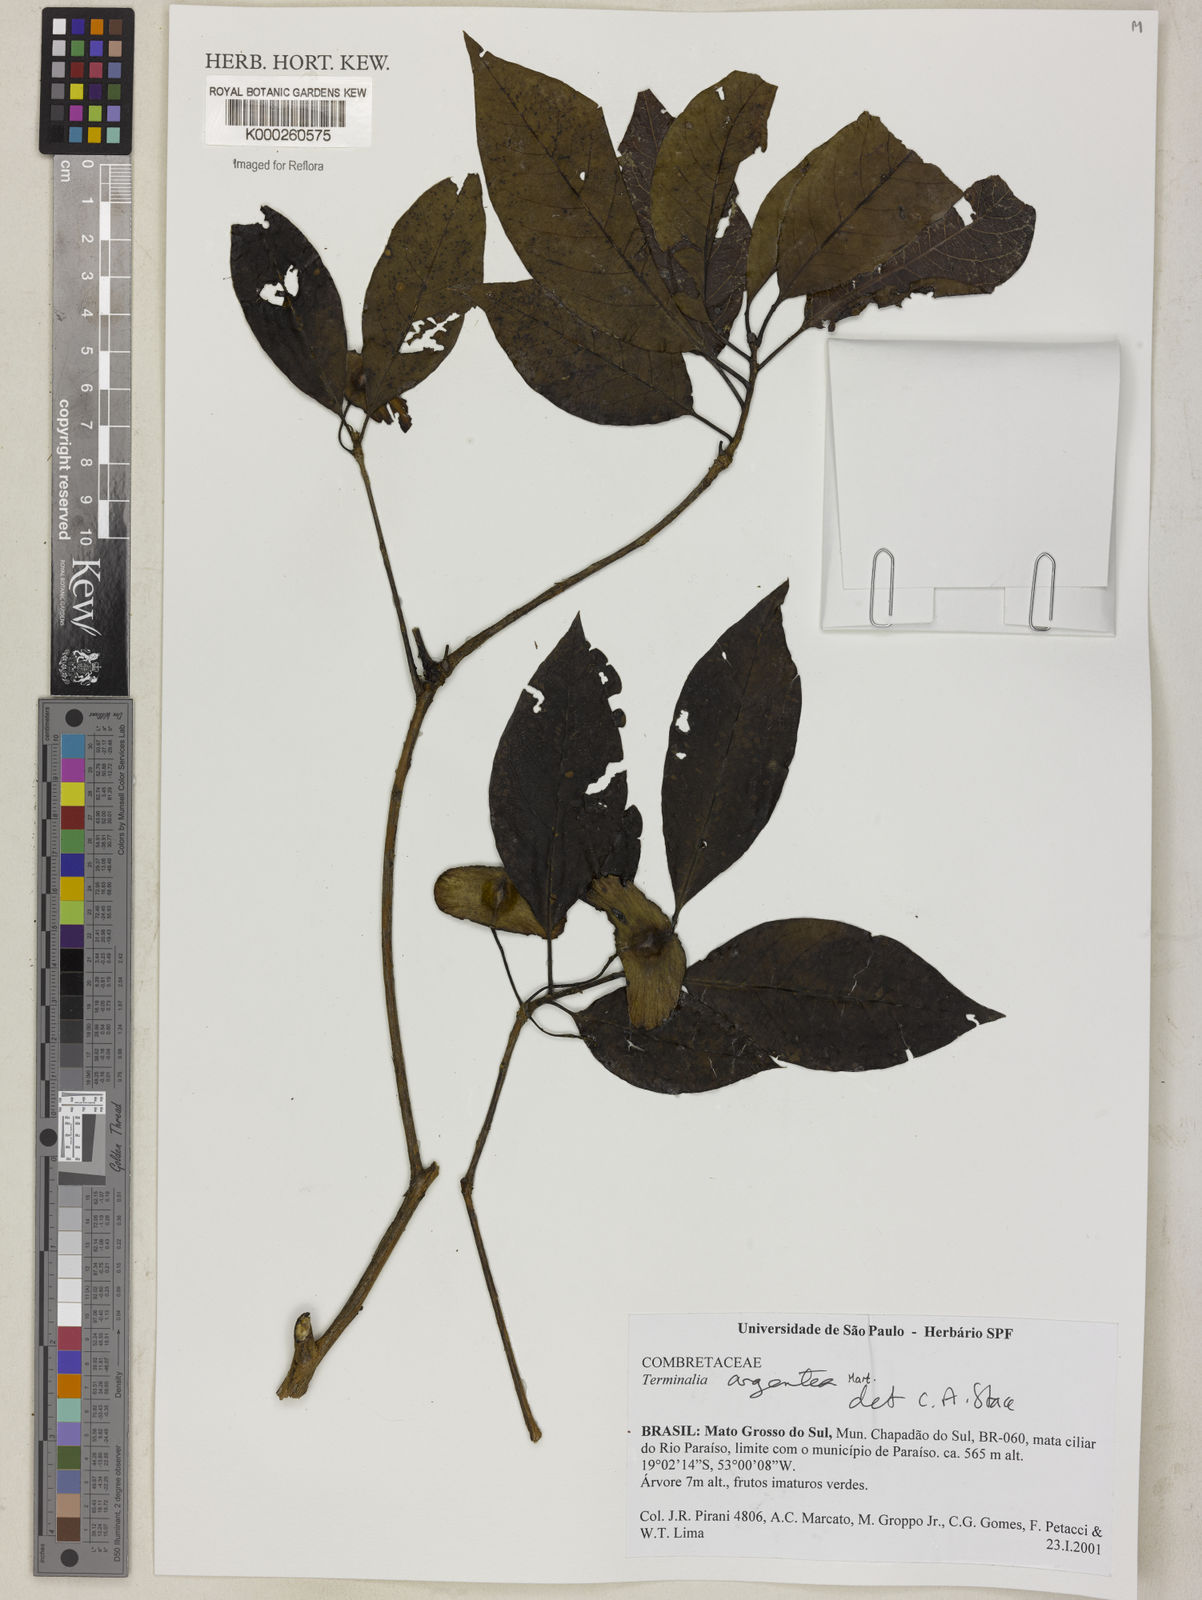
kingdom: Plantae
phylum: Tracheophyta
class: Magnoliopsida
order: Myrtales
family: Combretaceae
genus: Terminalia
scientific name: Terminalia argentea
